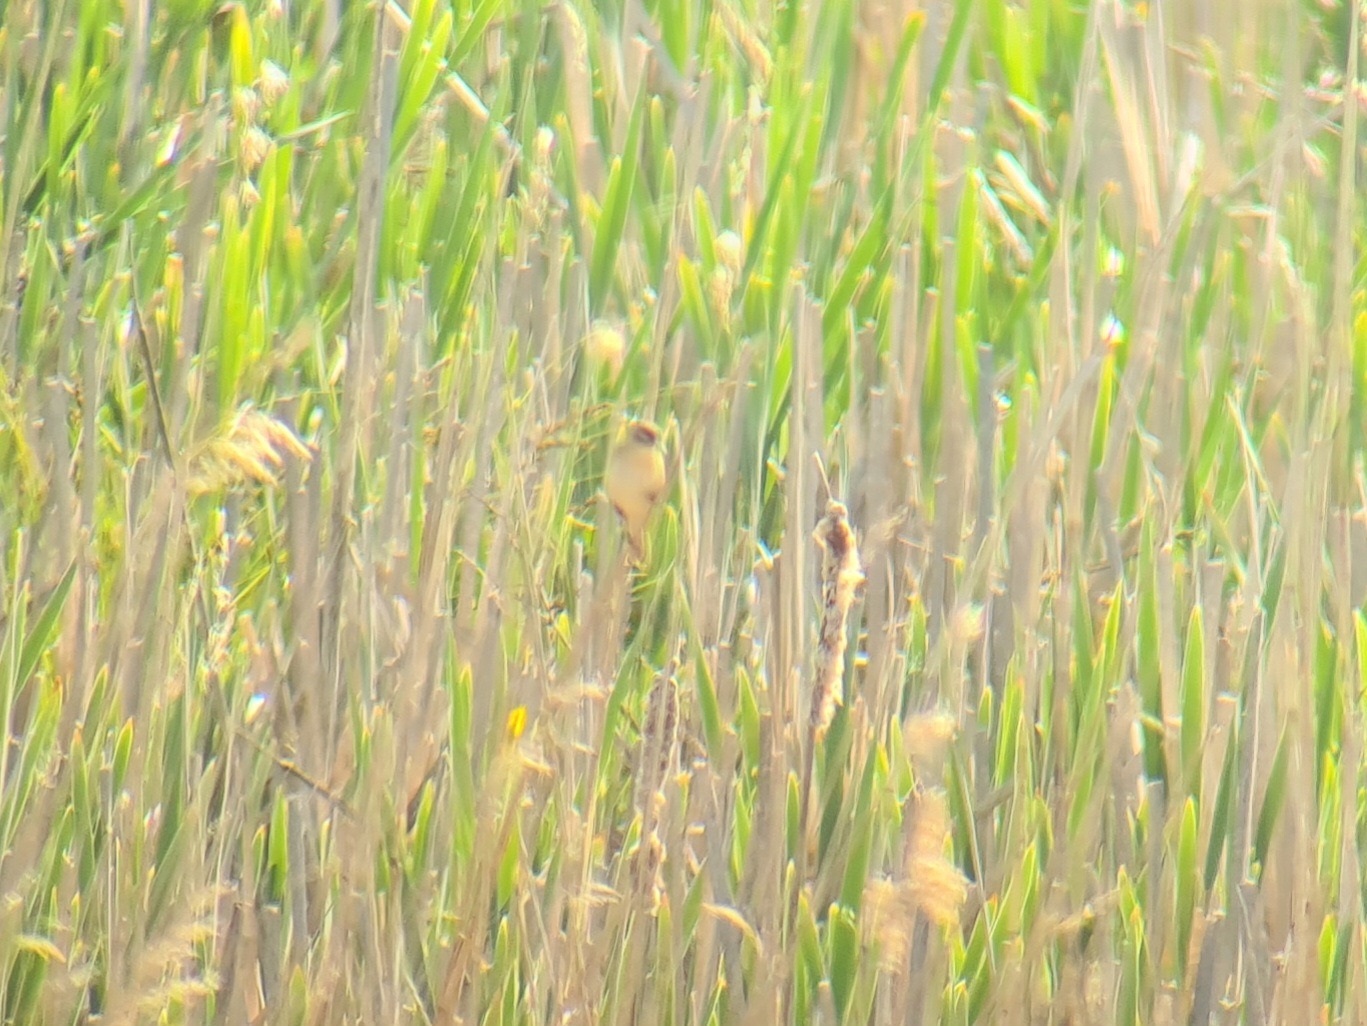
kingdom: Animalia
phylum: Chordata
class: Aves
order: Passeriformes
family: Acrocephalidae
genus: Acrocephalus
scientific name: Acrocephalus schoenobaenus
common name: Sivsanger
